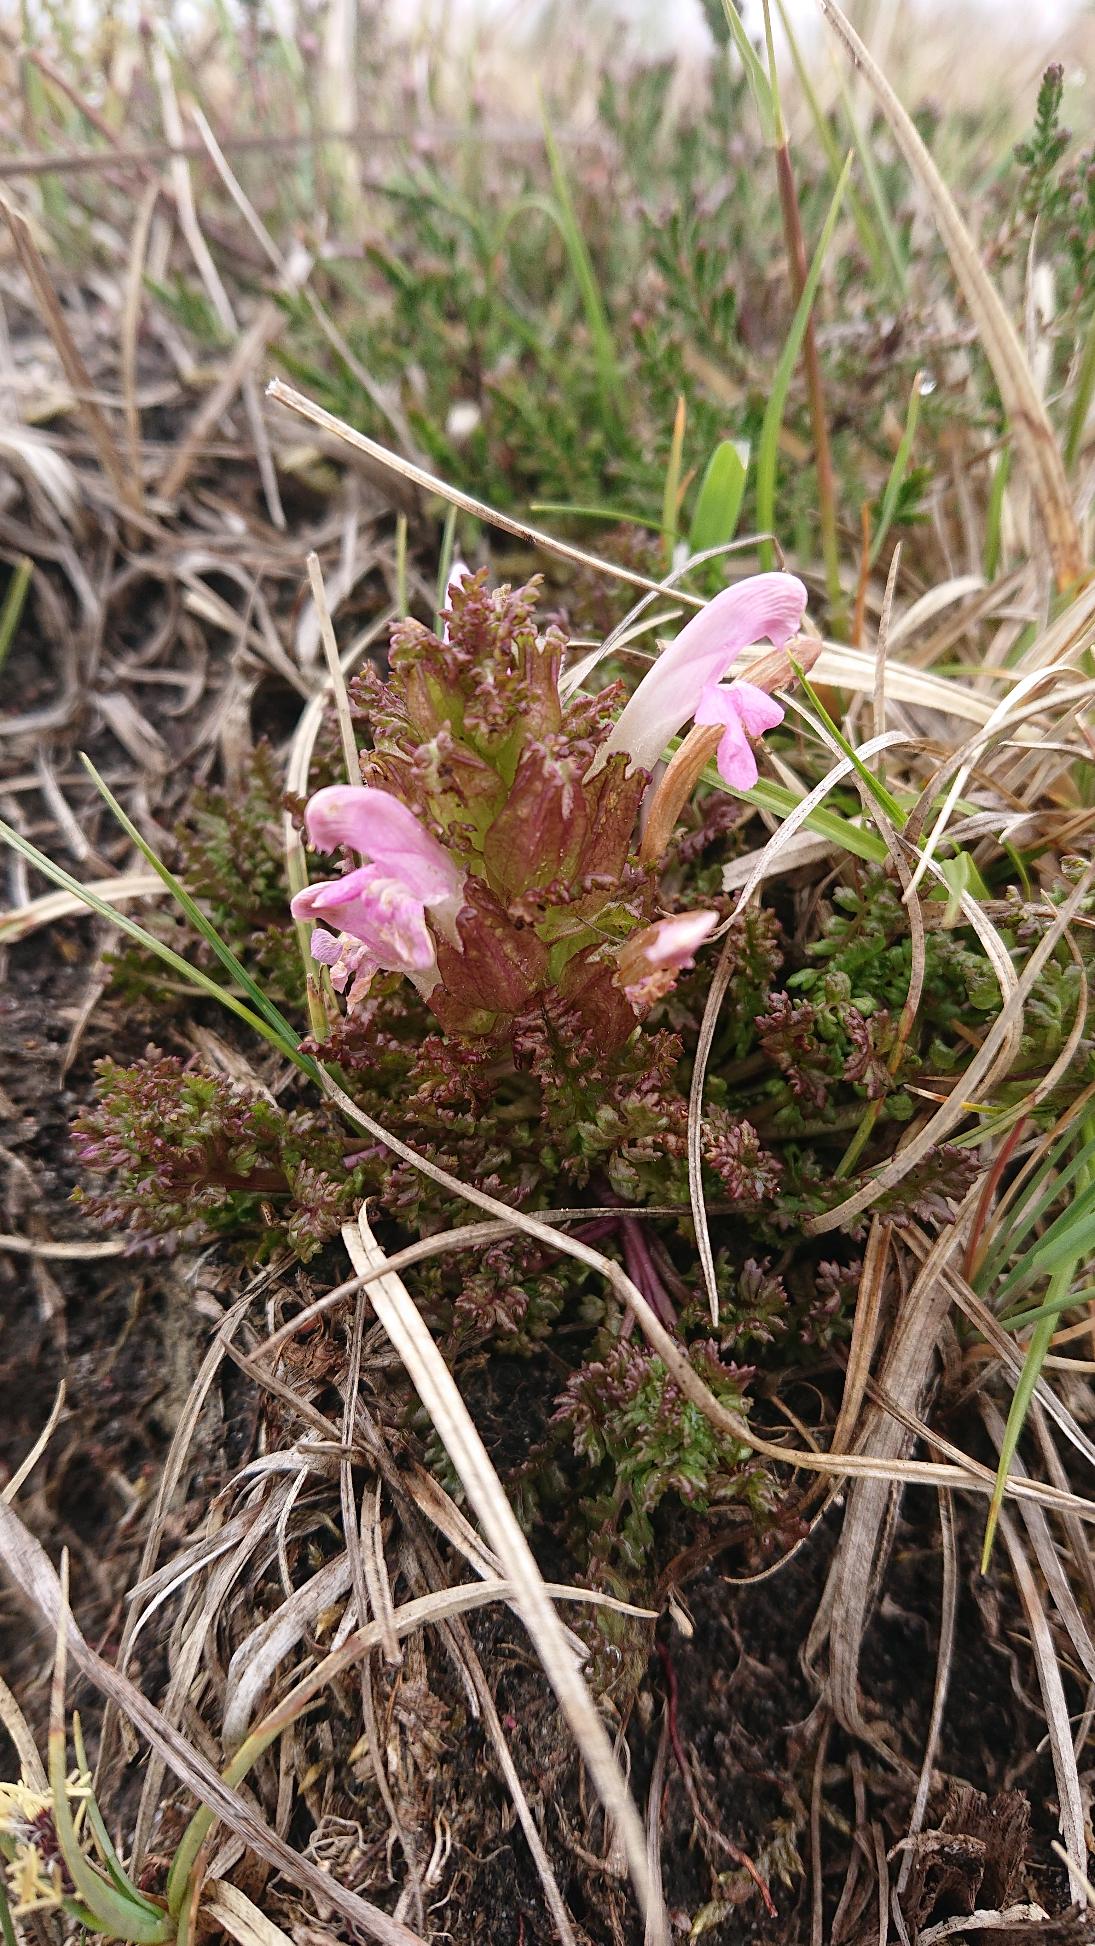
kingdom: Plantae
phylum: Tracheophyta
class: Magnoliopsida
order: Lamiales
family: Orobanchaceae
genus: Pedicularis
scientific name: Pedicularis sylvatica
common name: Mose-troldurt
